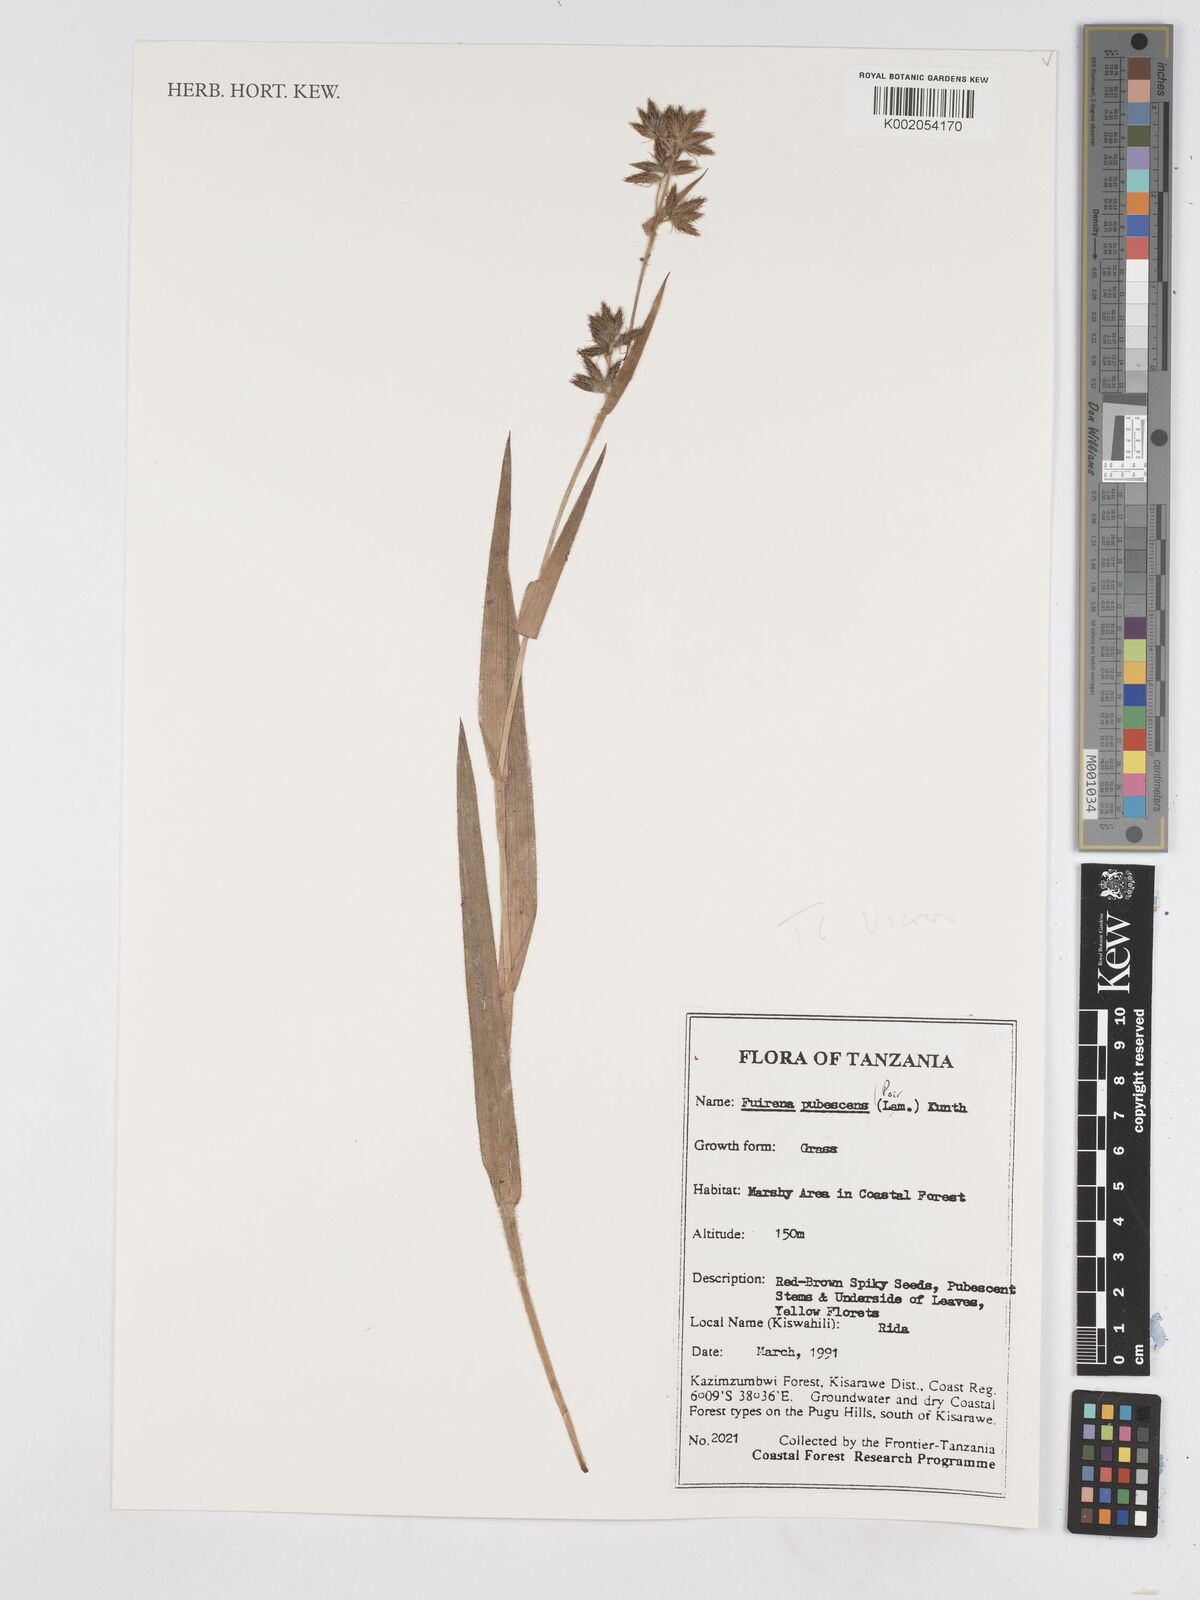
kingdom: Plantae
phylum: Tracheophyta
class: Liliopsida
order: Poales
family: Cyperaceae
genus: Fuirena
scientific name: Fuirena pachyrrhiza
